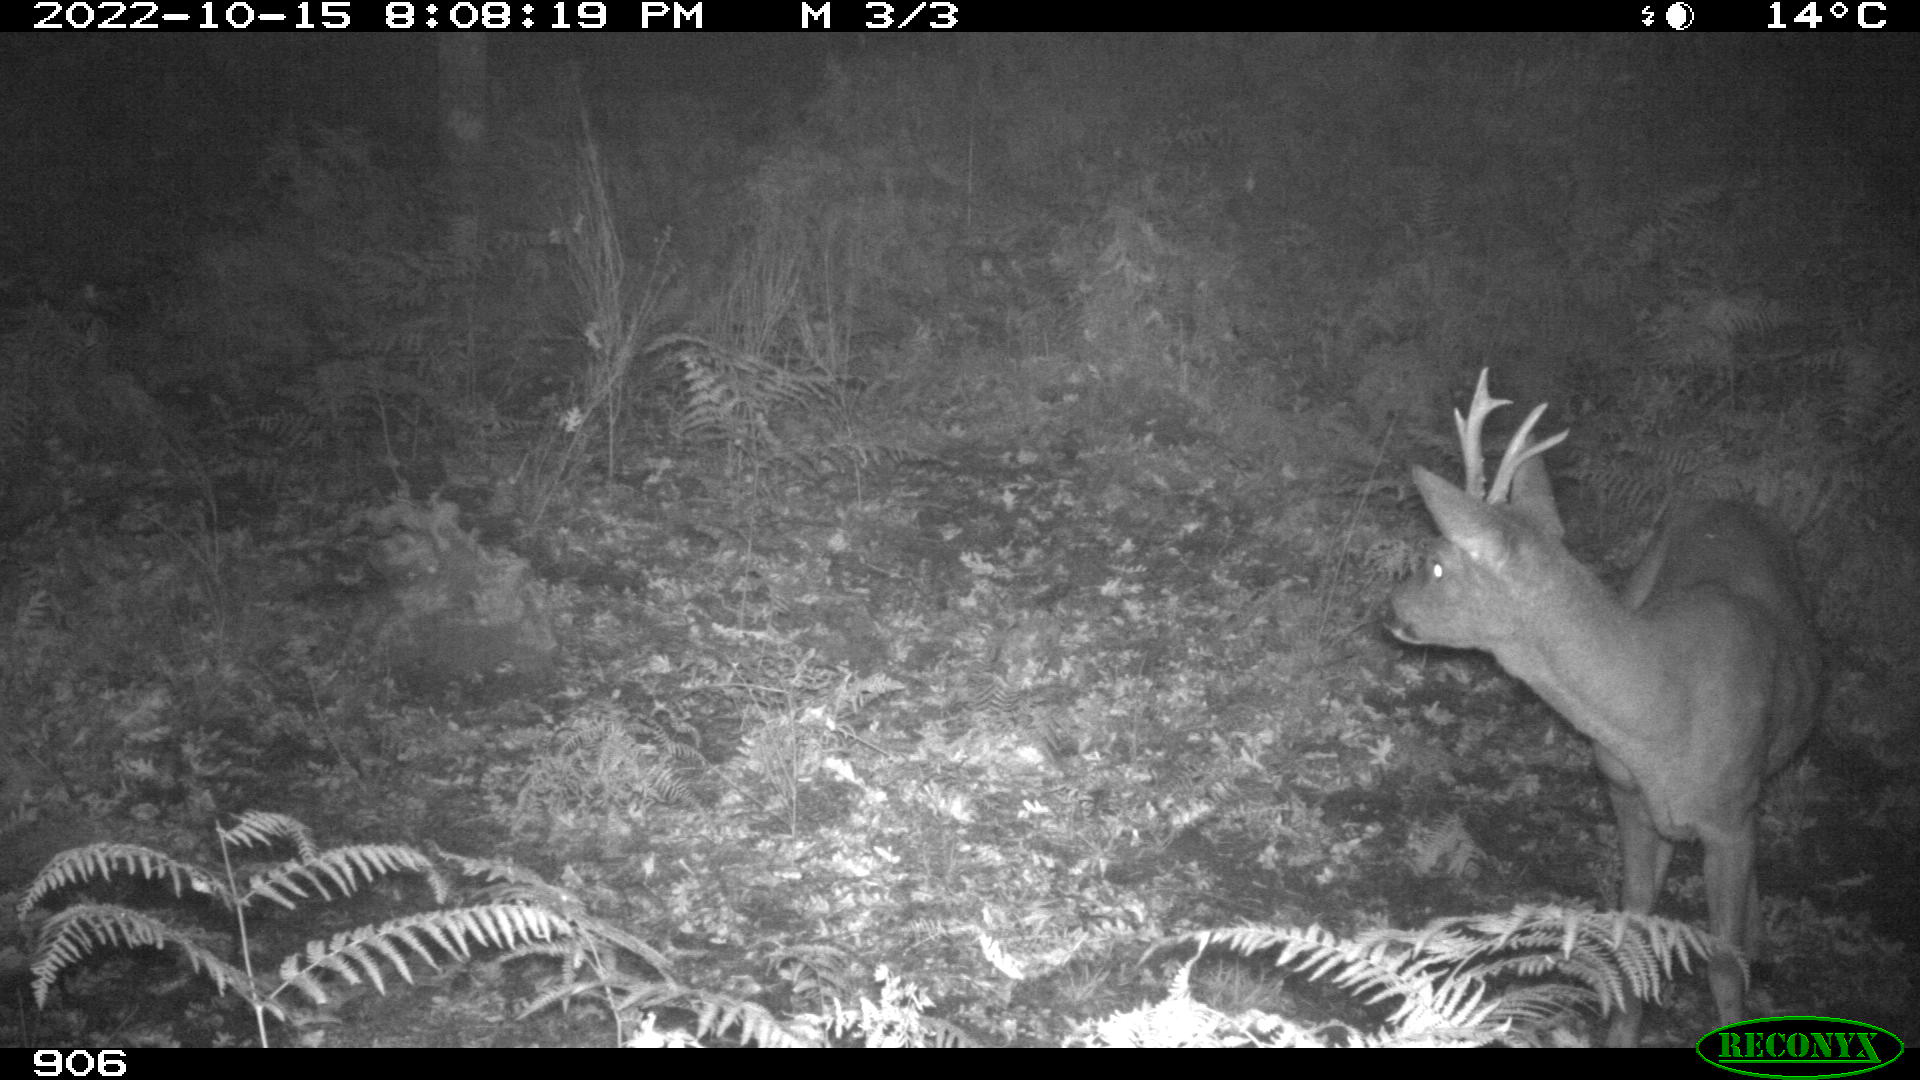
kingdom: Animalia
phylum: Chordata
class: Mammalia
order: Artiodactyla
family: Cervidae
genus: Capreolus
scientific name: Capreolus capreolus
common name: Western roe deer
